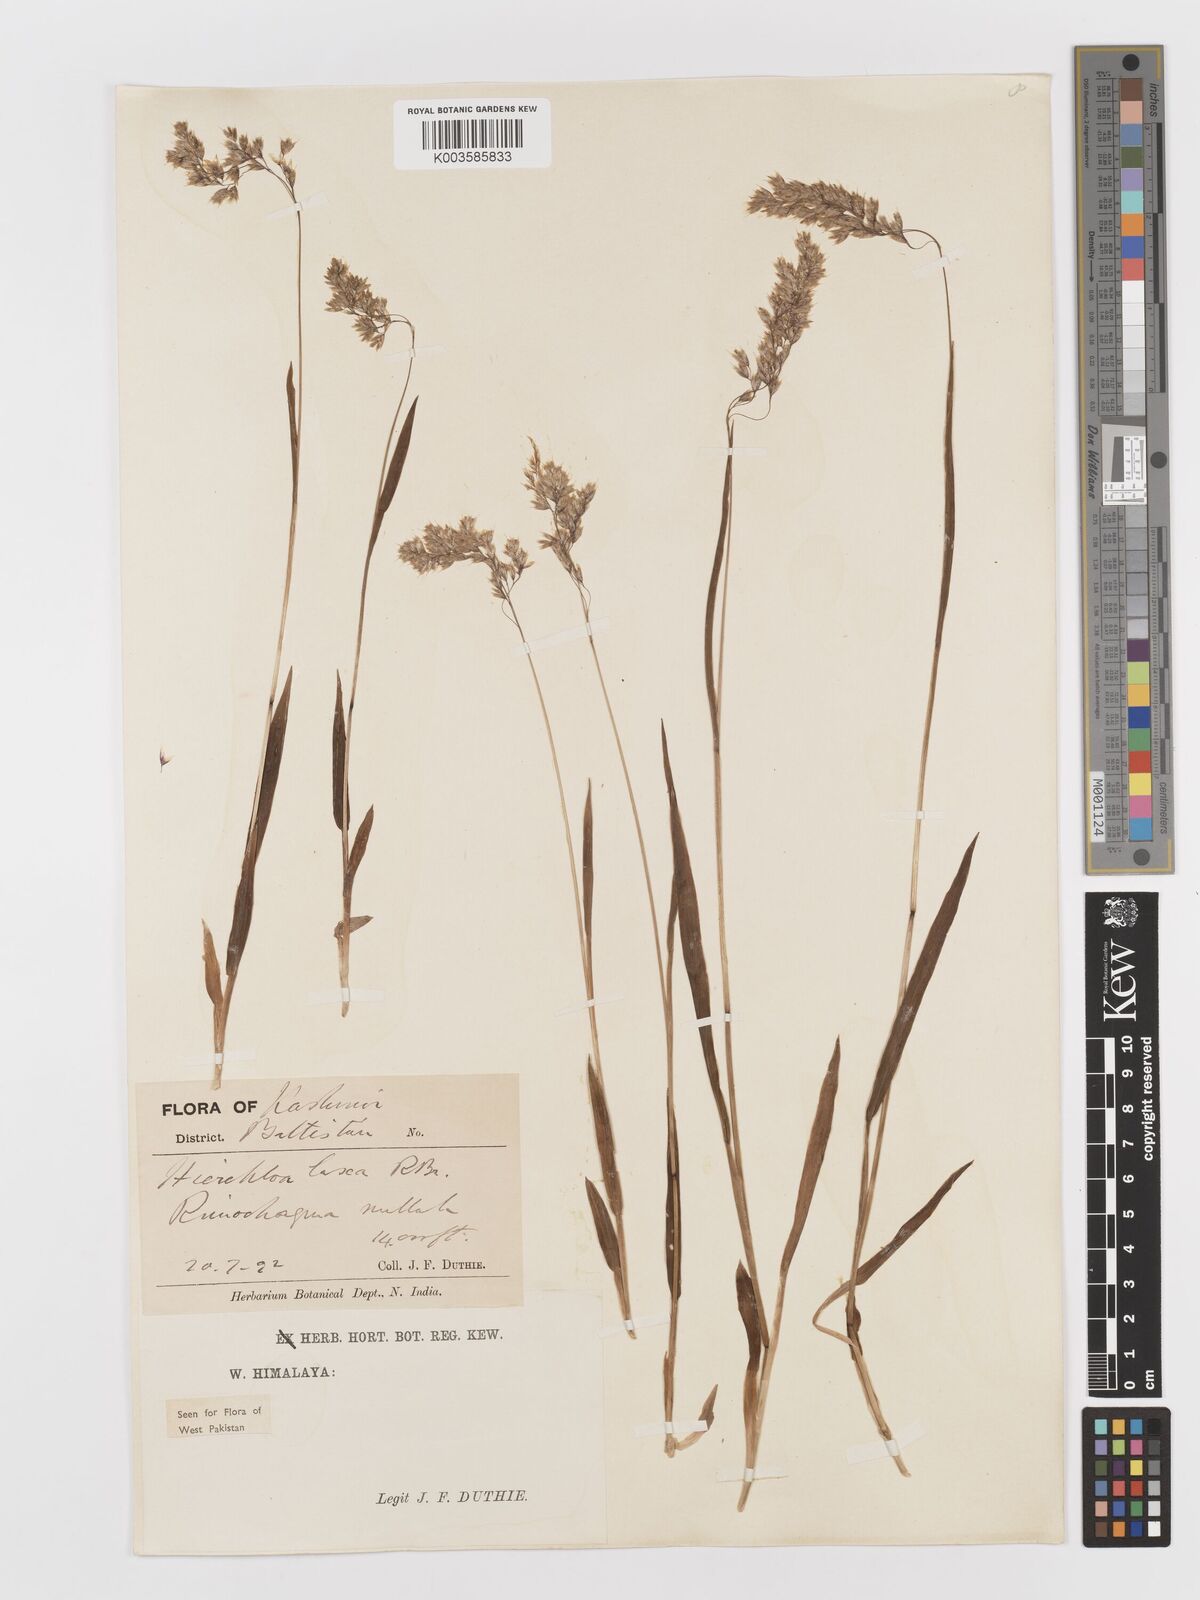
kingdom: Plantae
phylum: Tracheophyta
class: Liliopsida
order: Poales
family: Poaceae
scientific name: Poaceae
